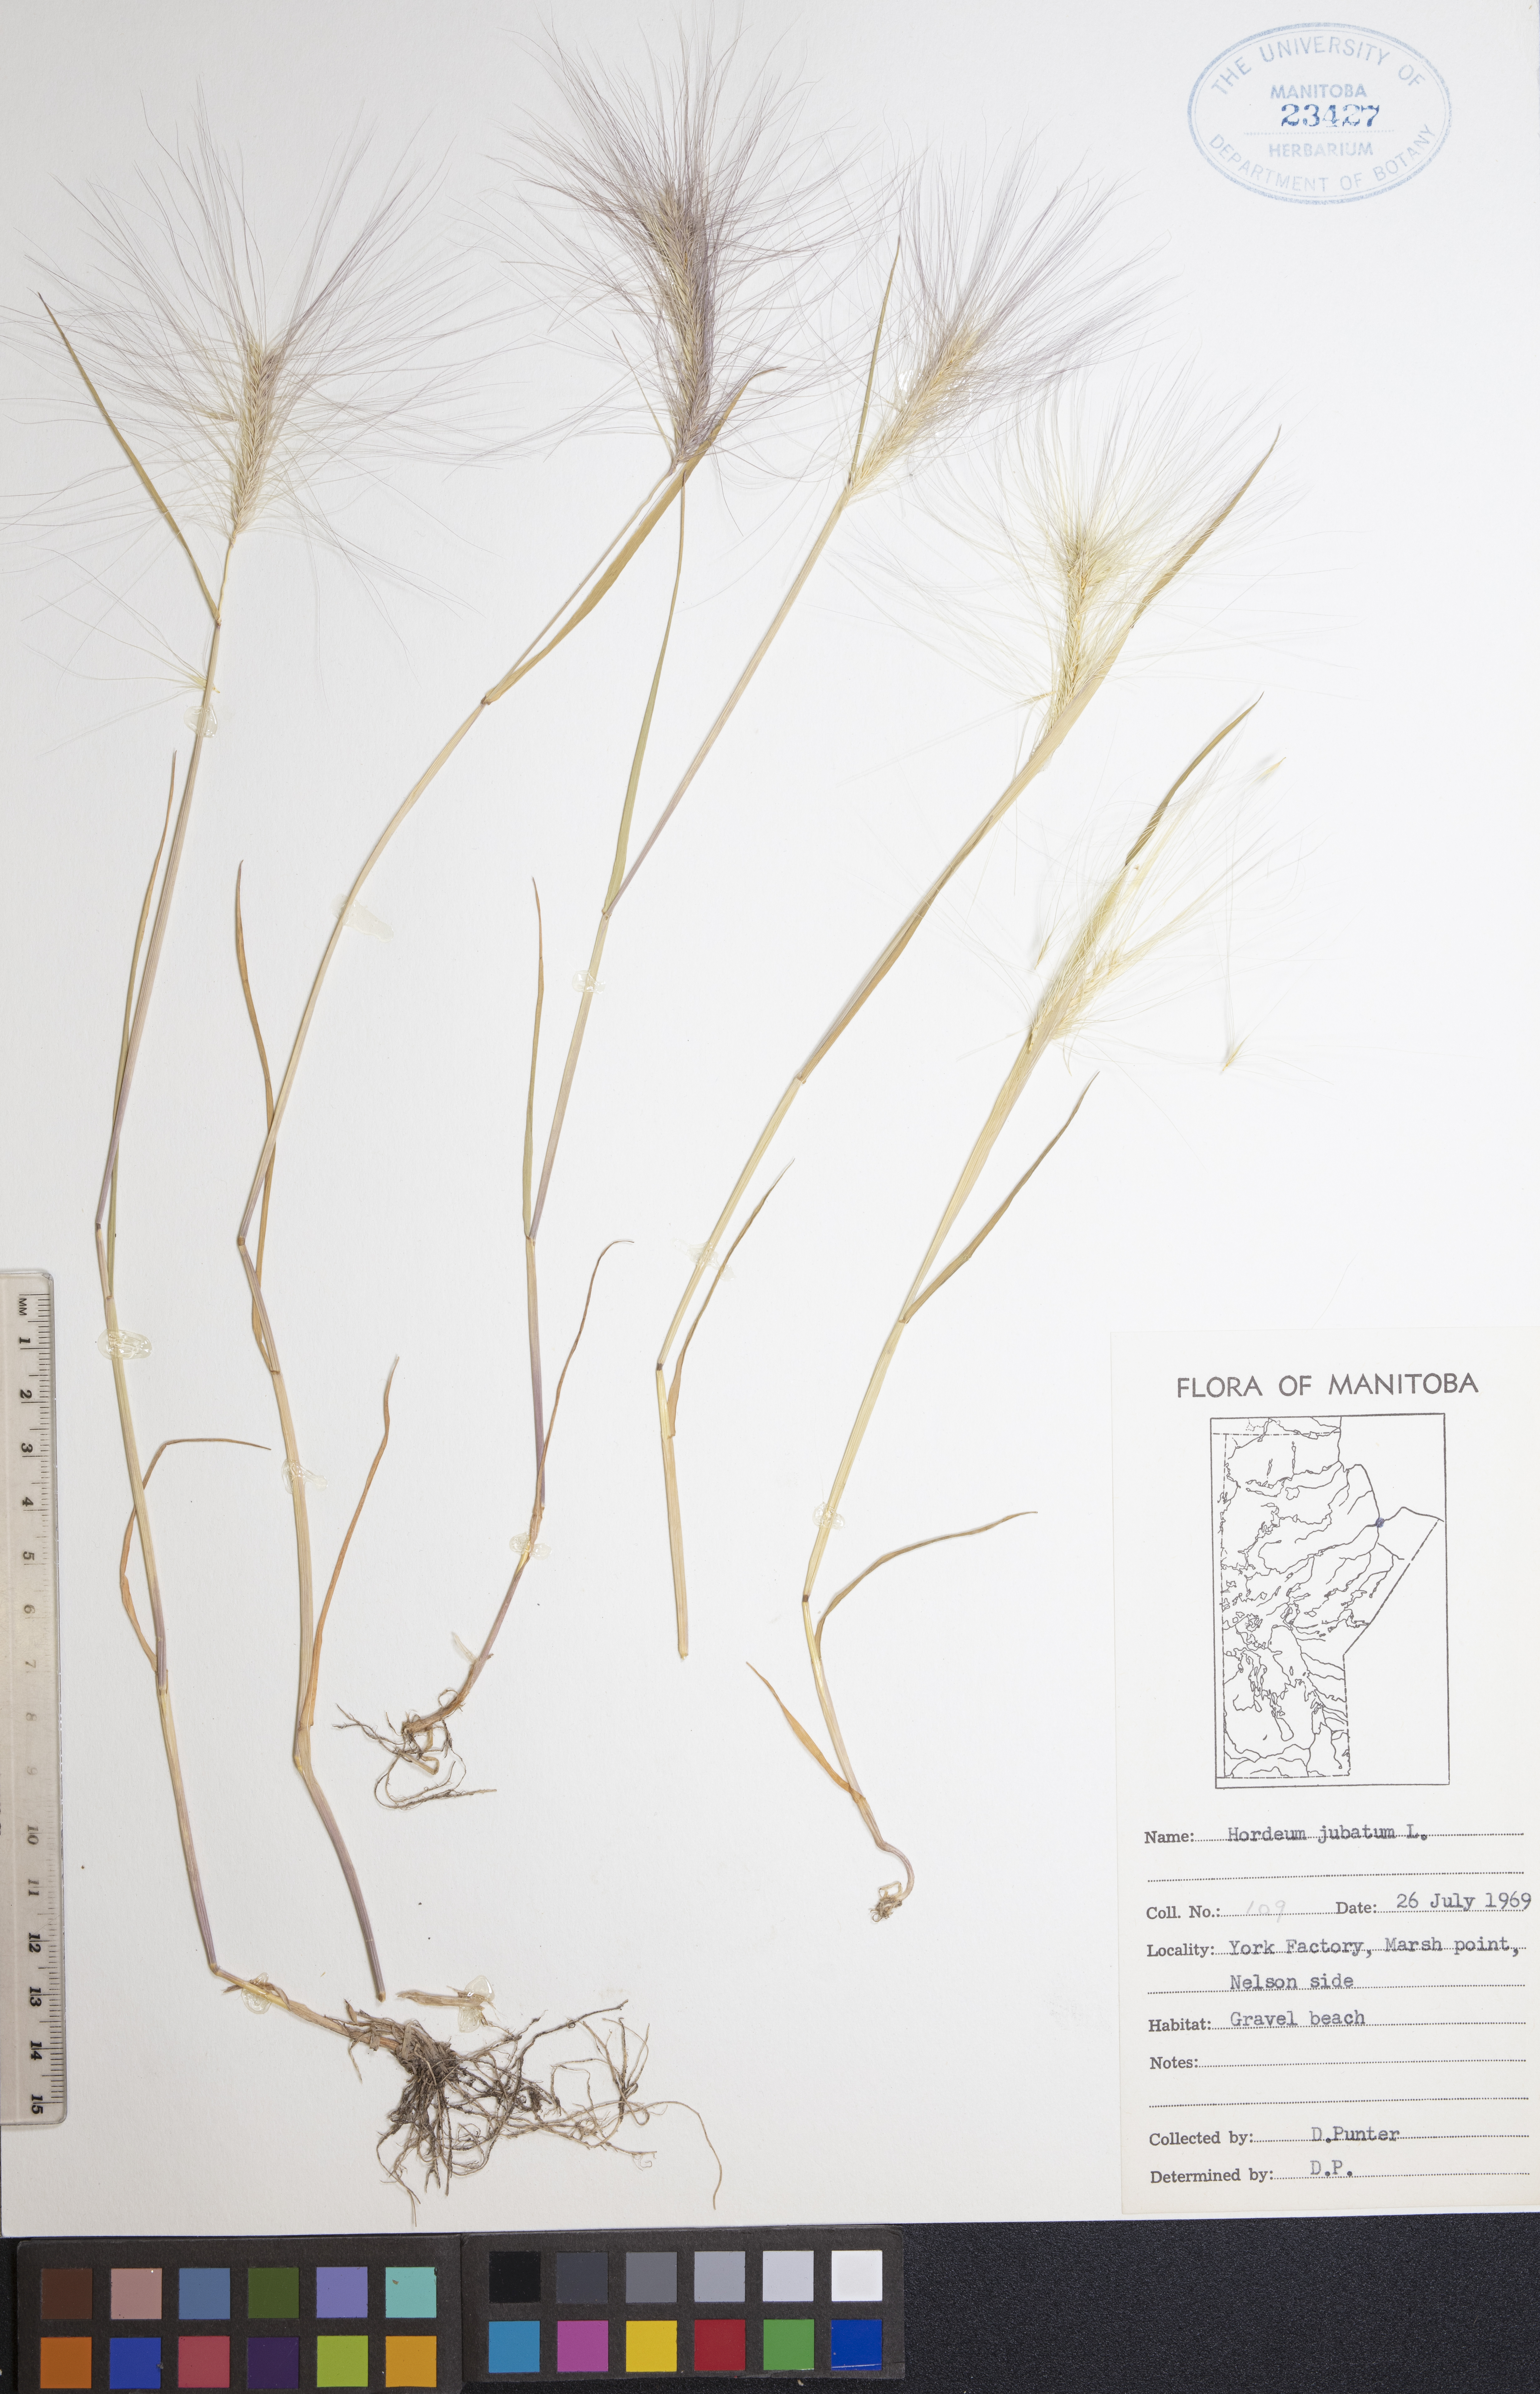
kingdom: Plantae
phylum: Tracheophyta
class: Liliopsida
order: Poales
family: Poaceae
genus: Hordeum
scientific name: Hordeum jubatum
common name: Foxtail barley
